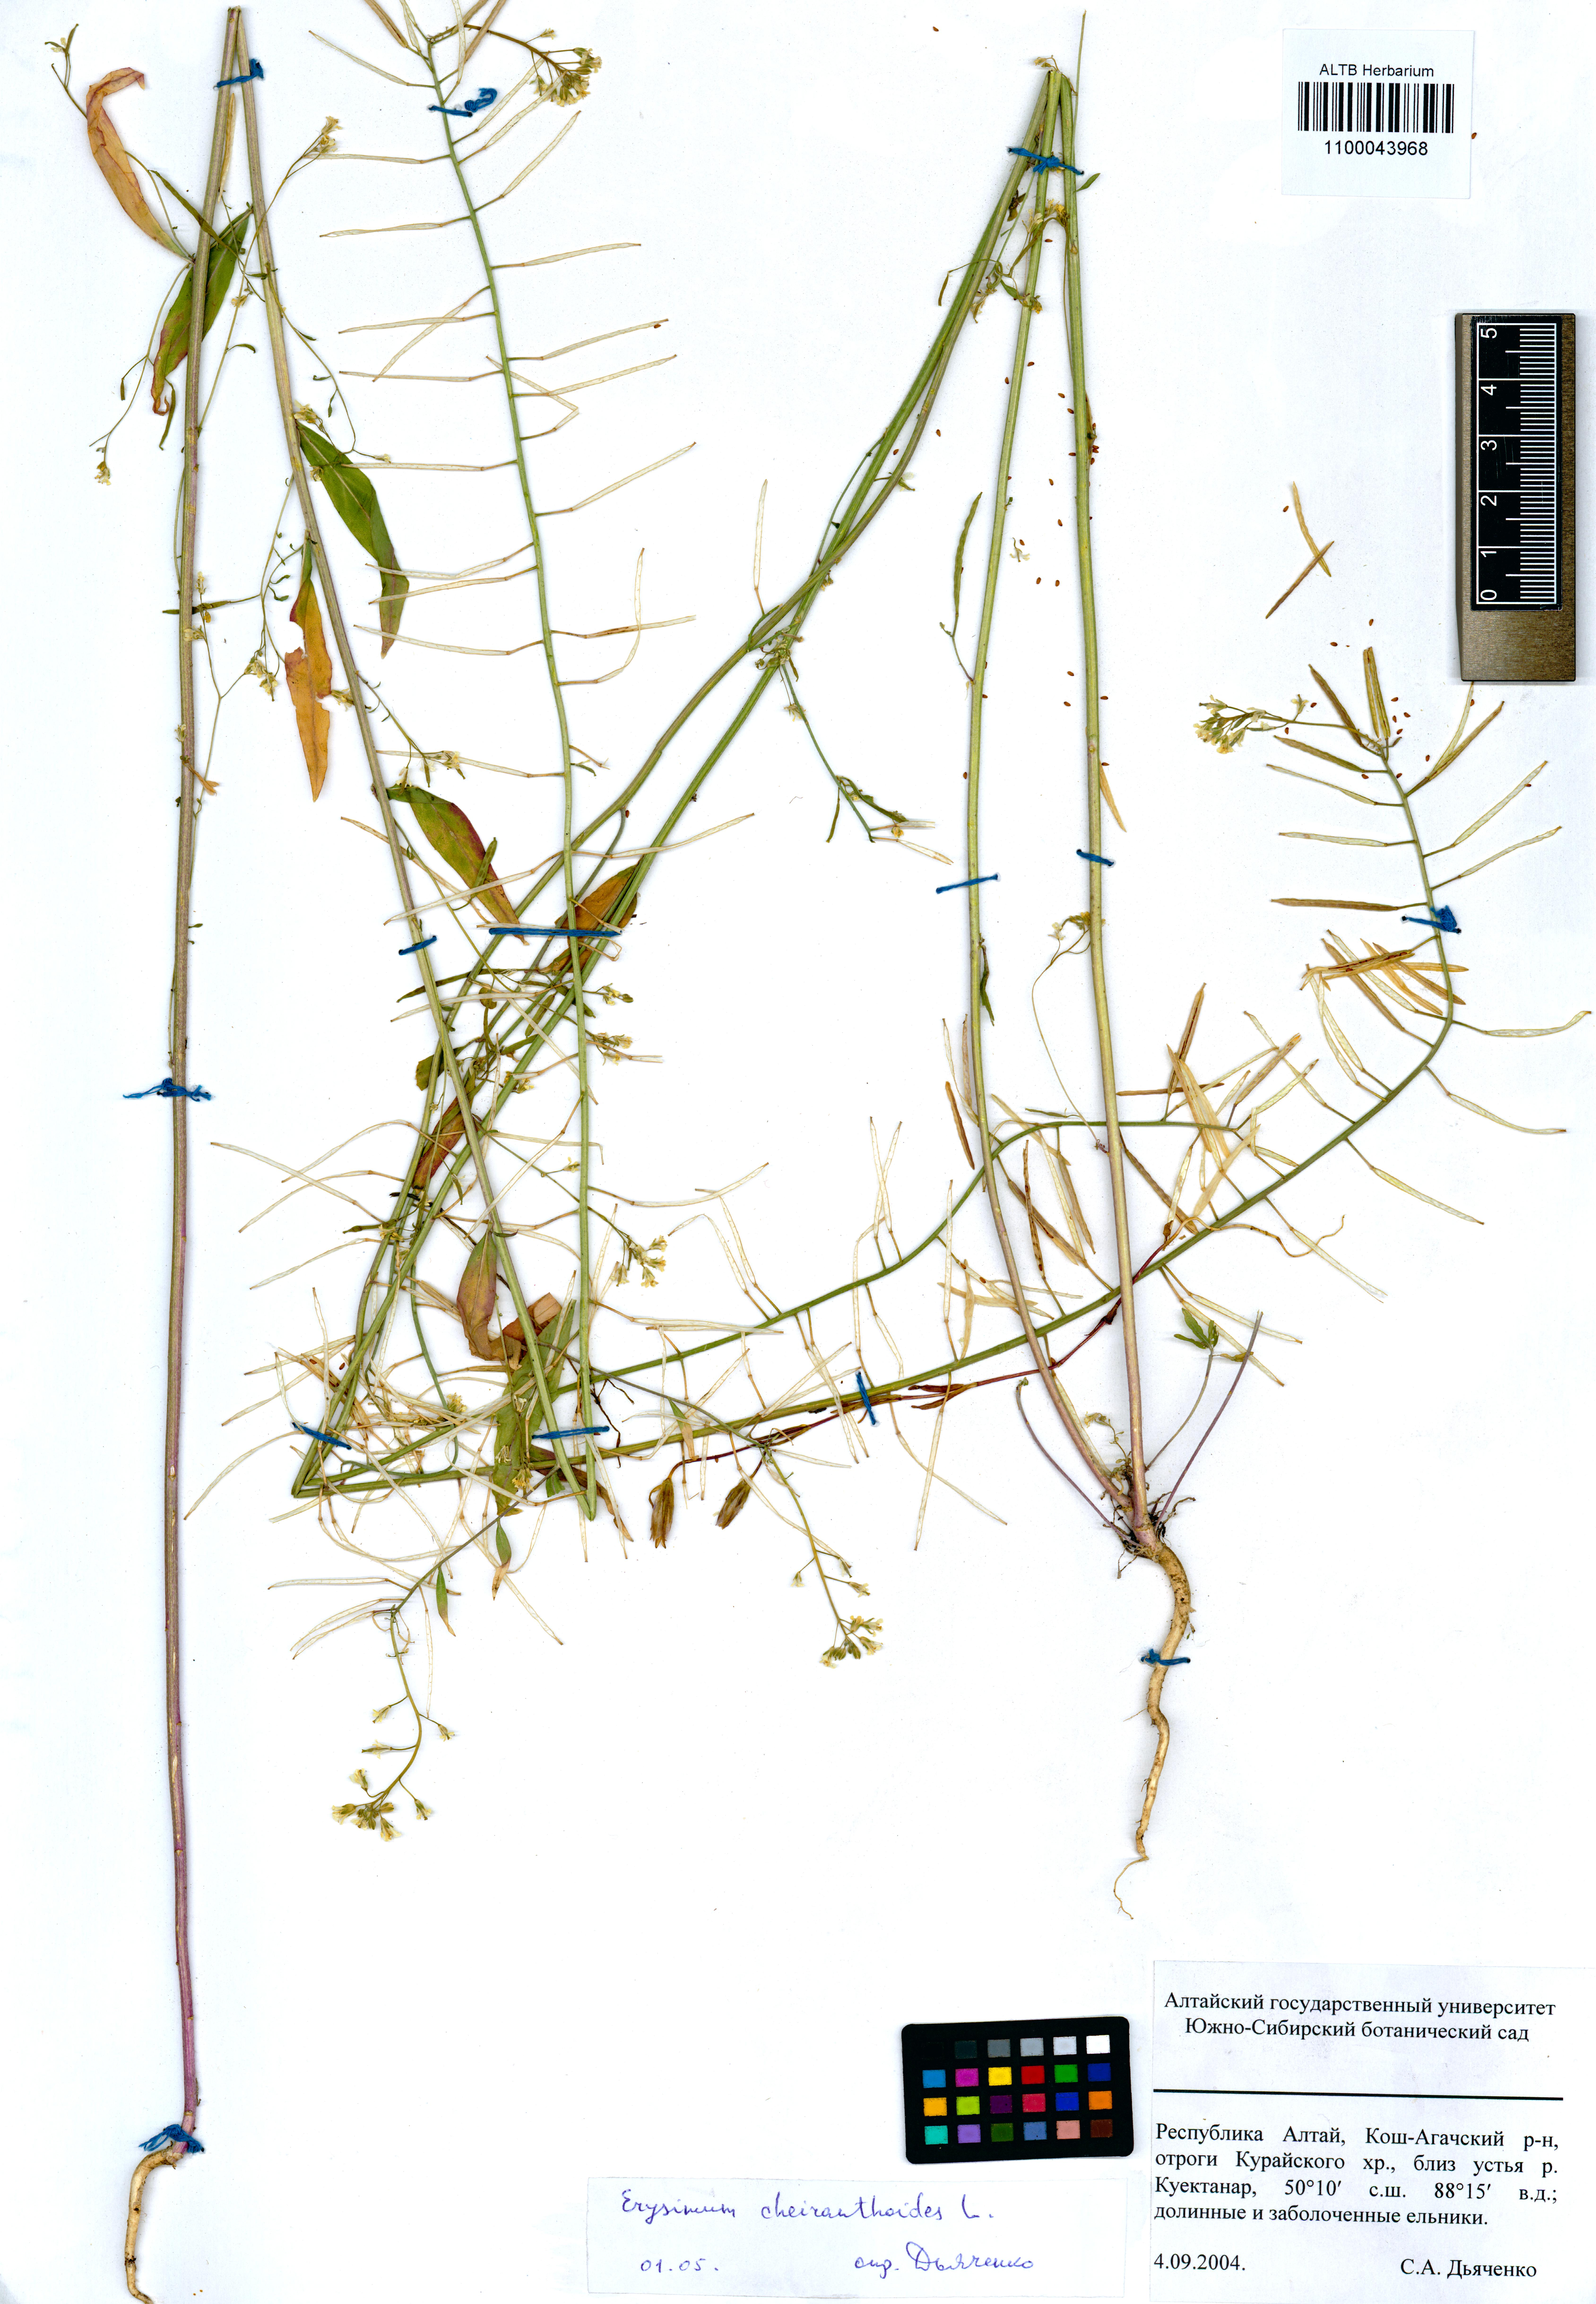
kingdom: Plantae
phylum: Tracheophyta
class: Magnoliopsida
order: Brassicales
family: Brassicaceae
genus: Erysimum
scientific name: Erysimum cheiranthoides
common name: Treacle mustard
